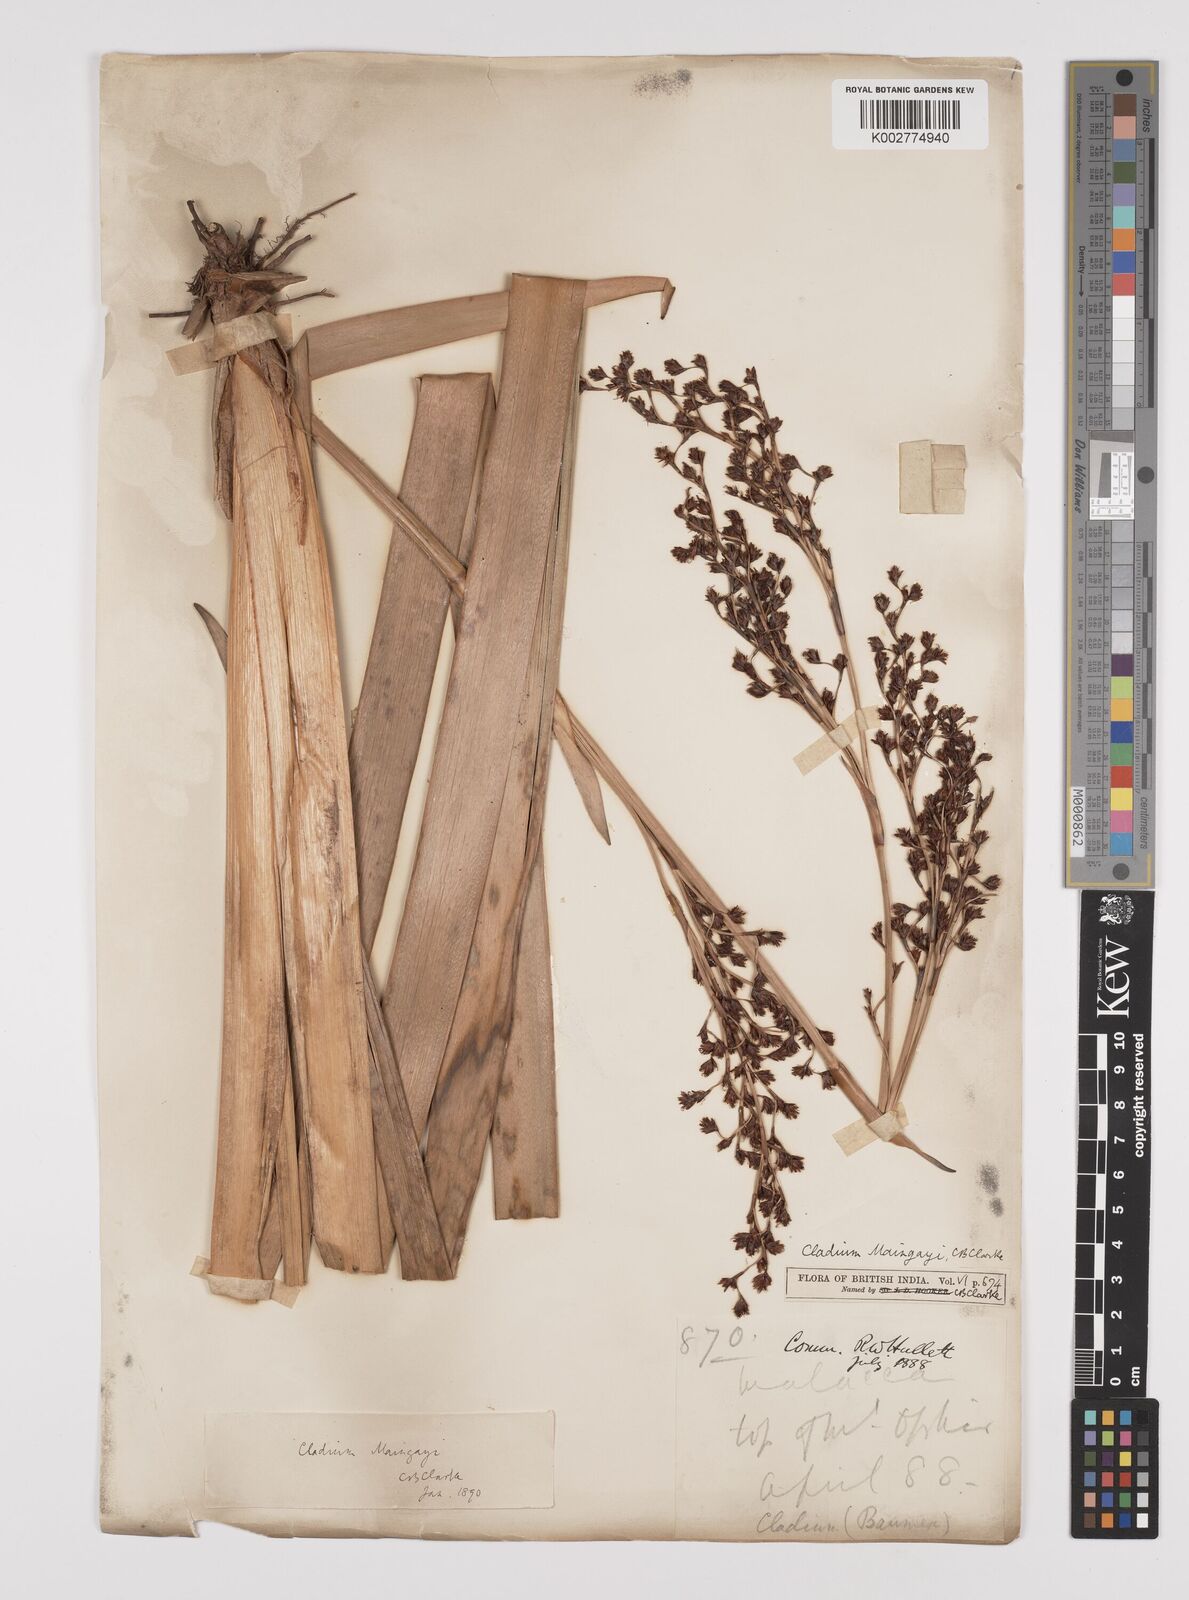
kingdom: Plantae
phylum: Tracheophyta
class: Liliopsida
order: Poales
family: Cyperaceae
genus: Machaerina
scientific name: Machaerina maingayi
